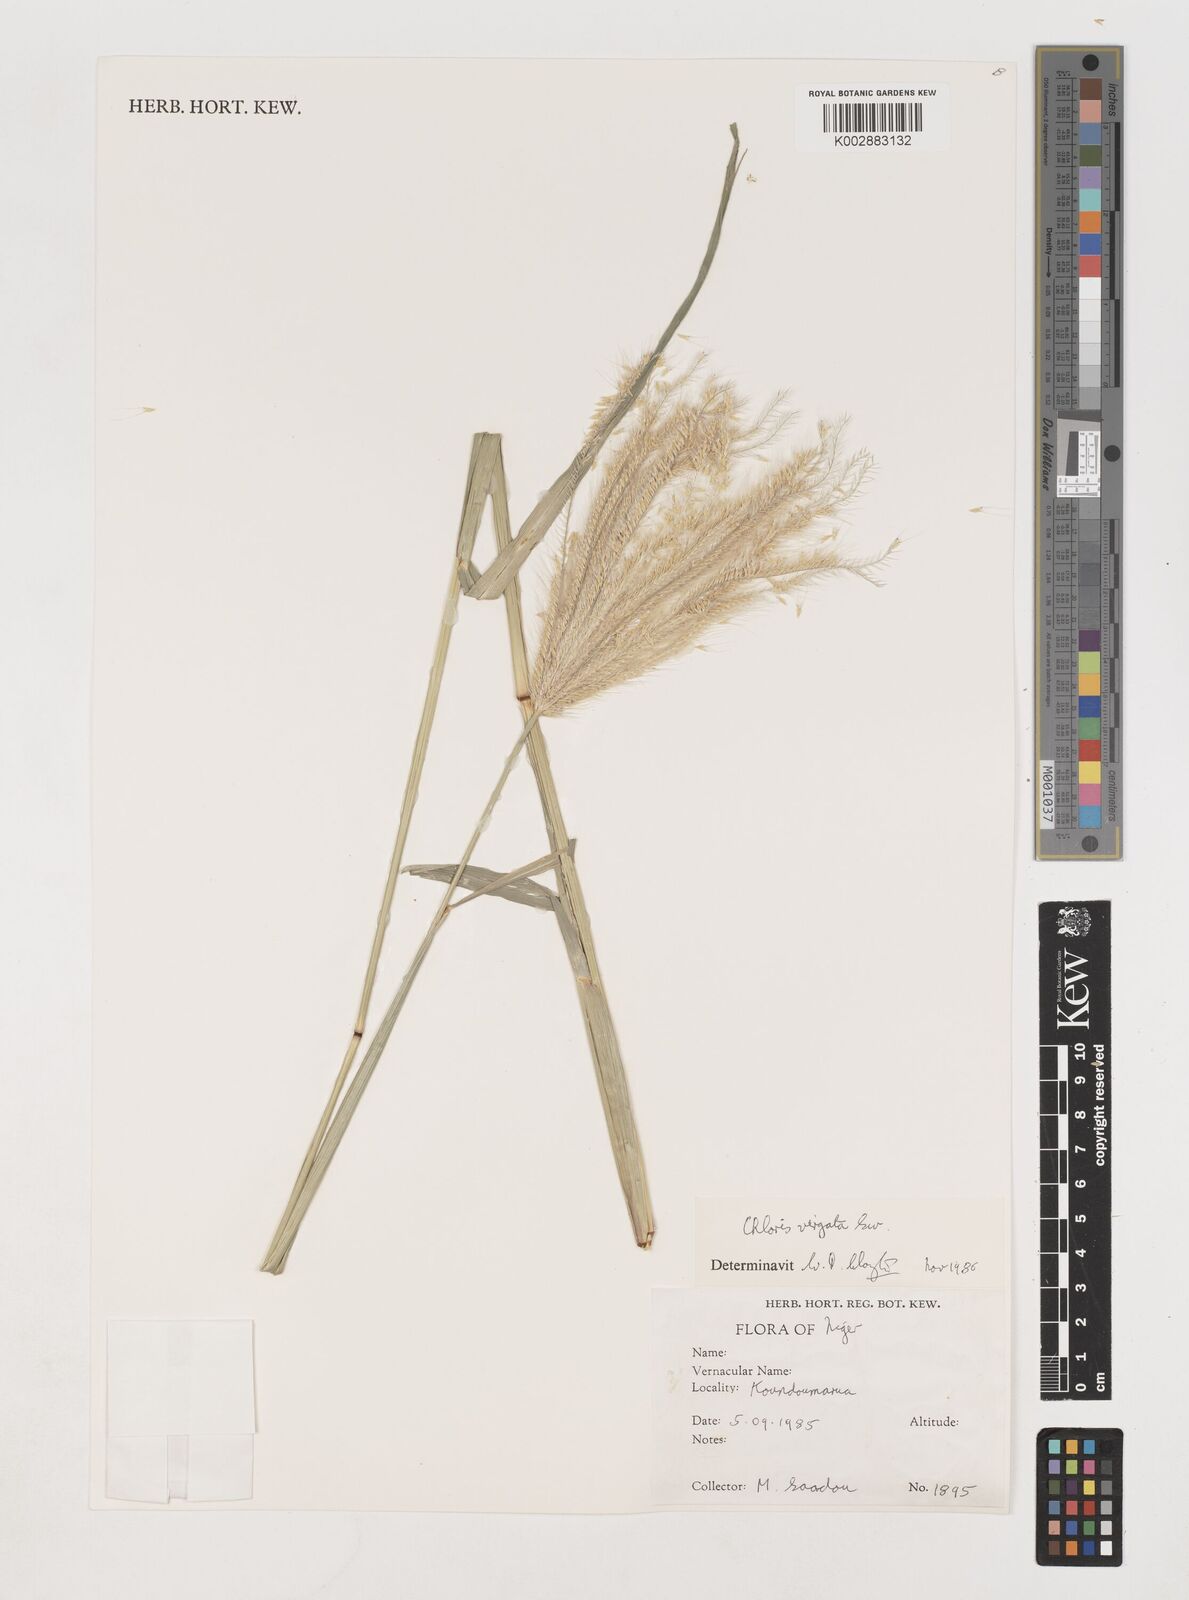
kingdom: Plantae
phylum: Tracheophyta
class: Liliopsida
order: Poales
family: Poaceae
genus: Chloris
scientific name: Chloris virgata
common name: Feathery rhodes-grass
